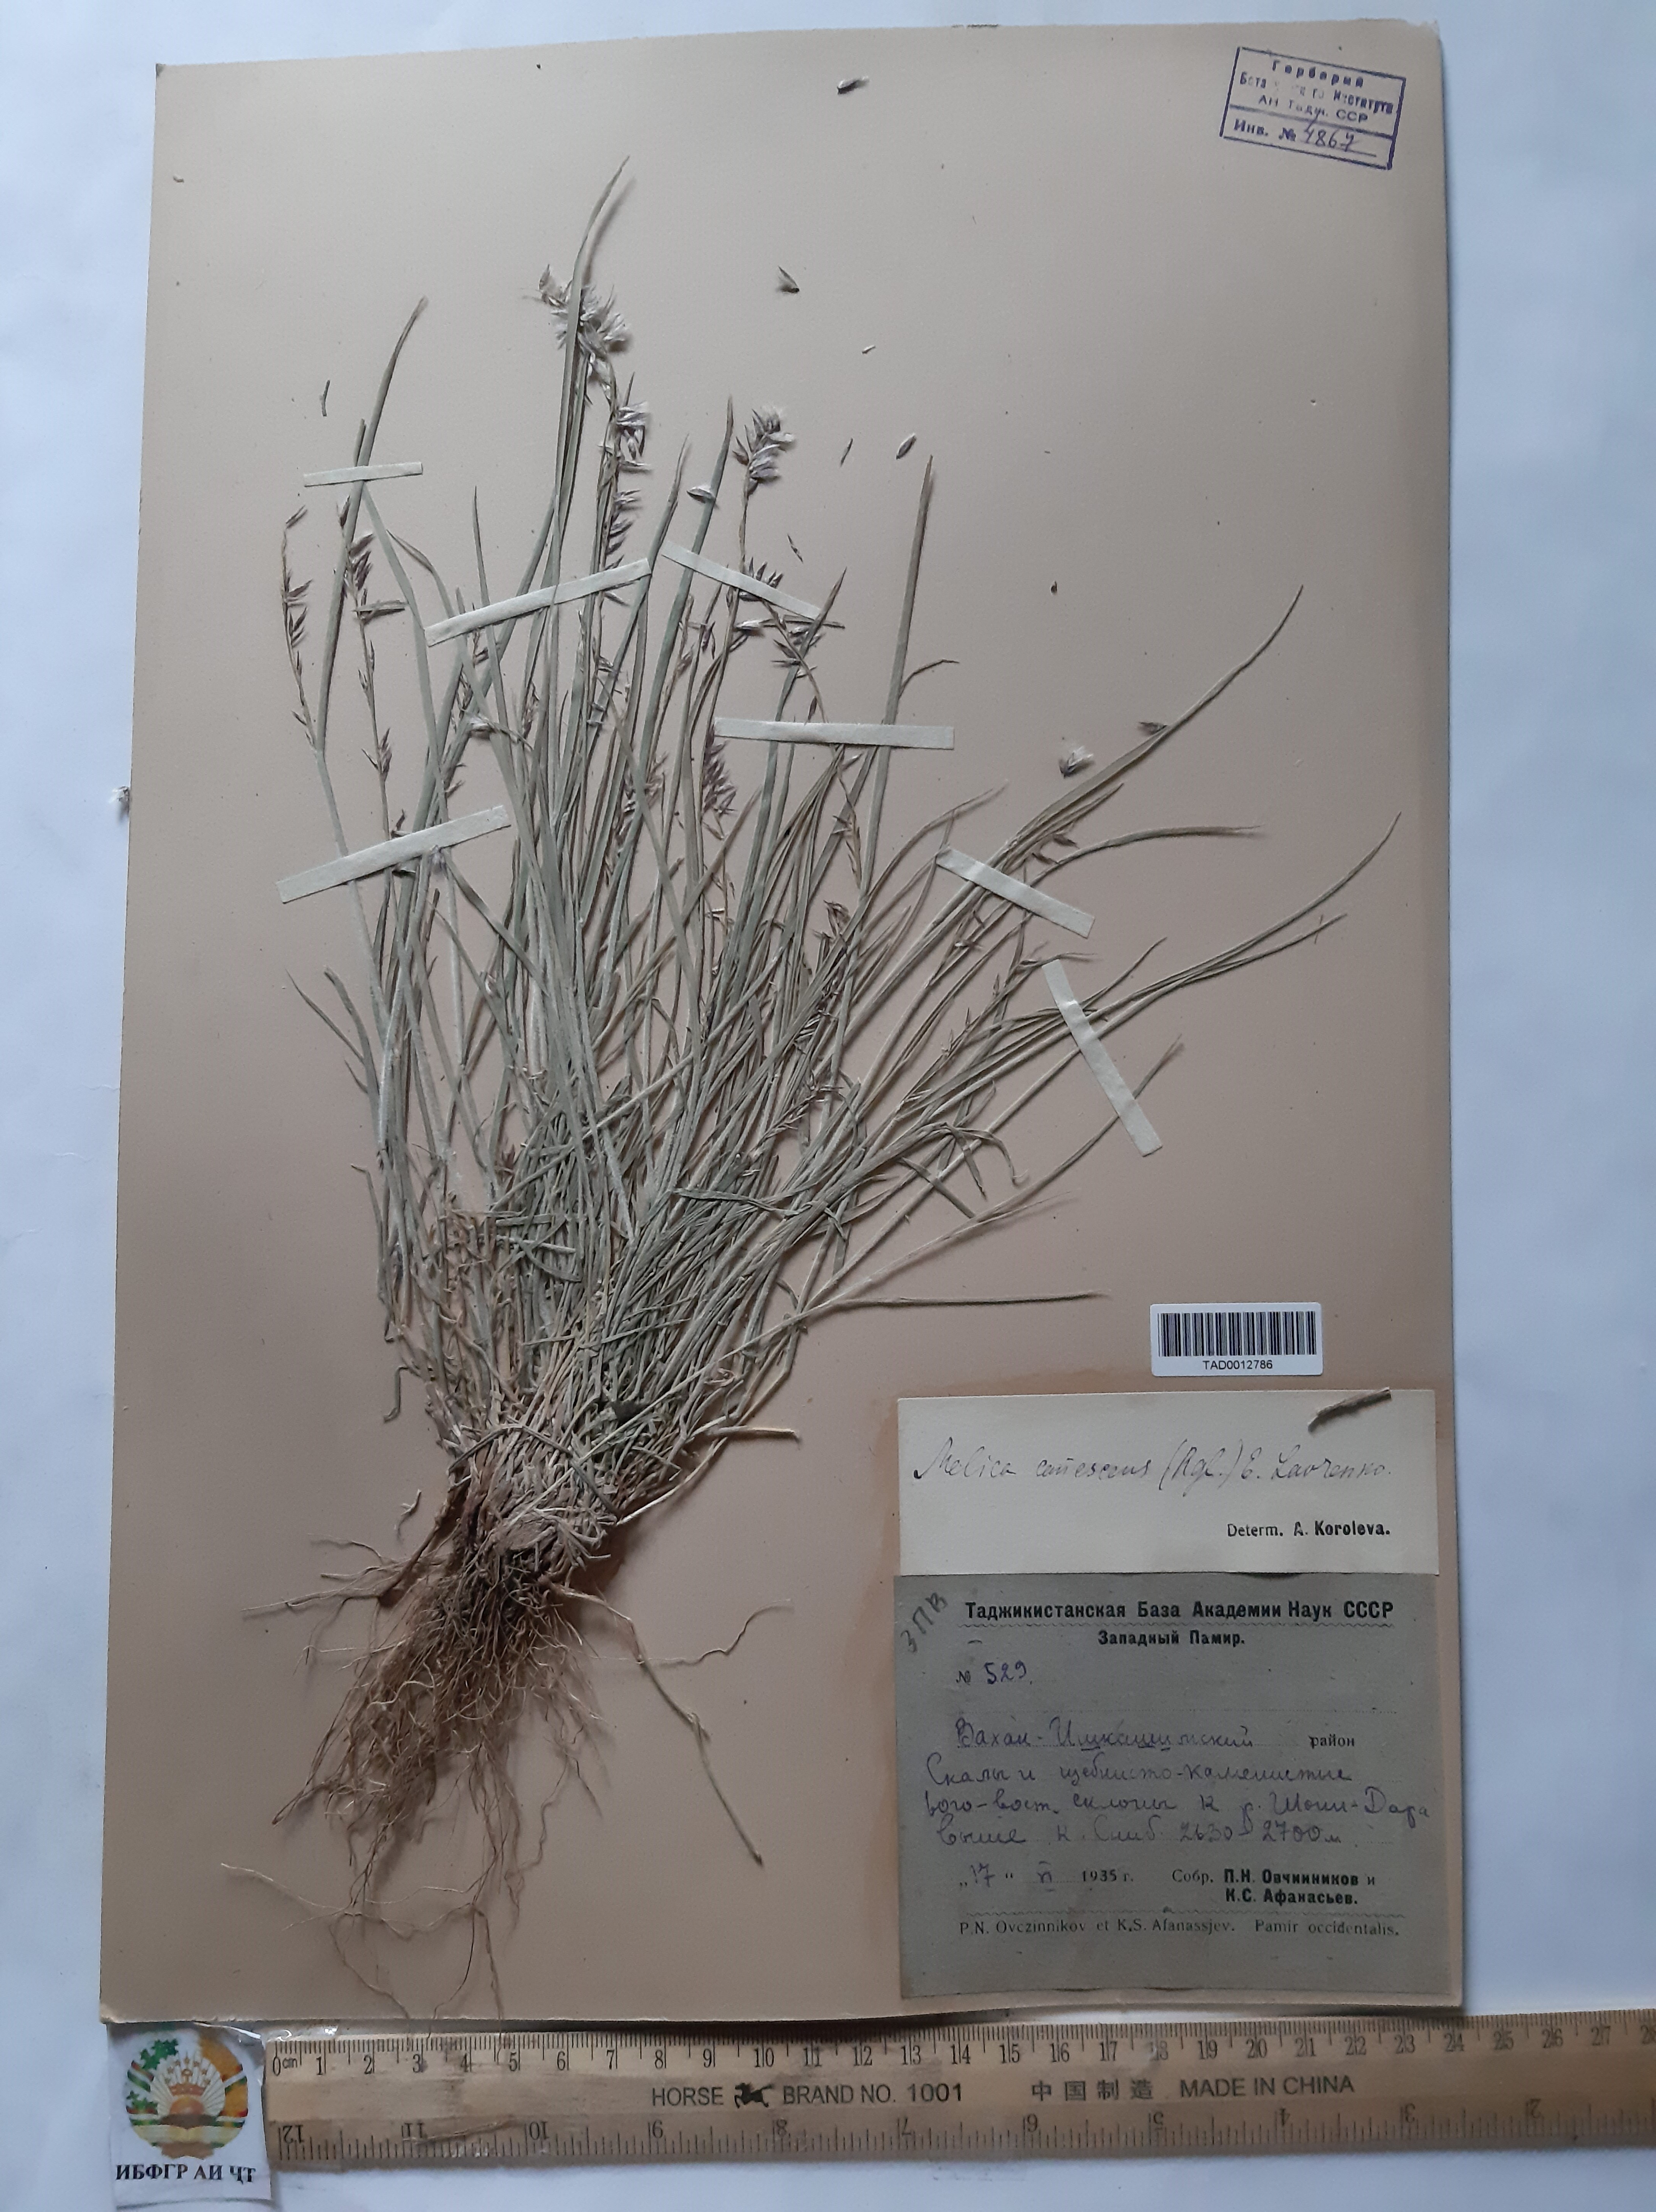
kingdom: Plantae
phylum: Tracheophyta
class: Liliopsida
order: Poales
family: Poaceae
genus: Melica
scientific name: Melica persica
